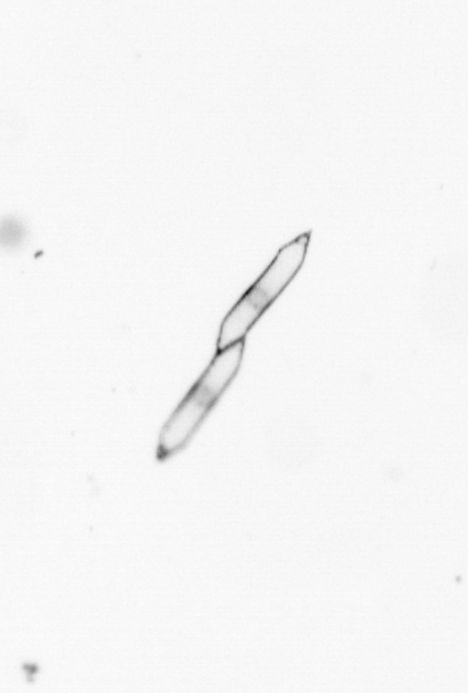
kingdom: Chromista
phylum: Ochrophyta
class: Bacillariophyceae
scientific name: Bacillariophyceae
